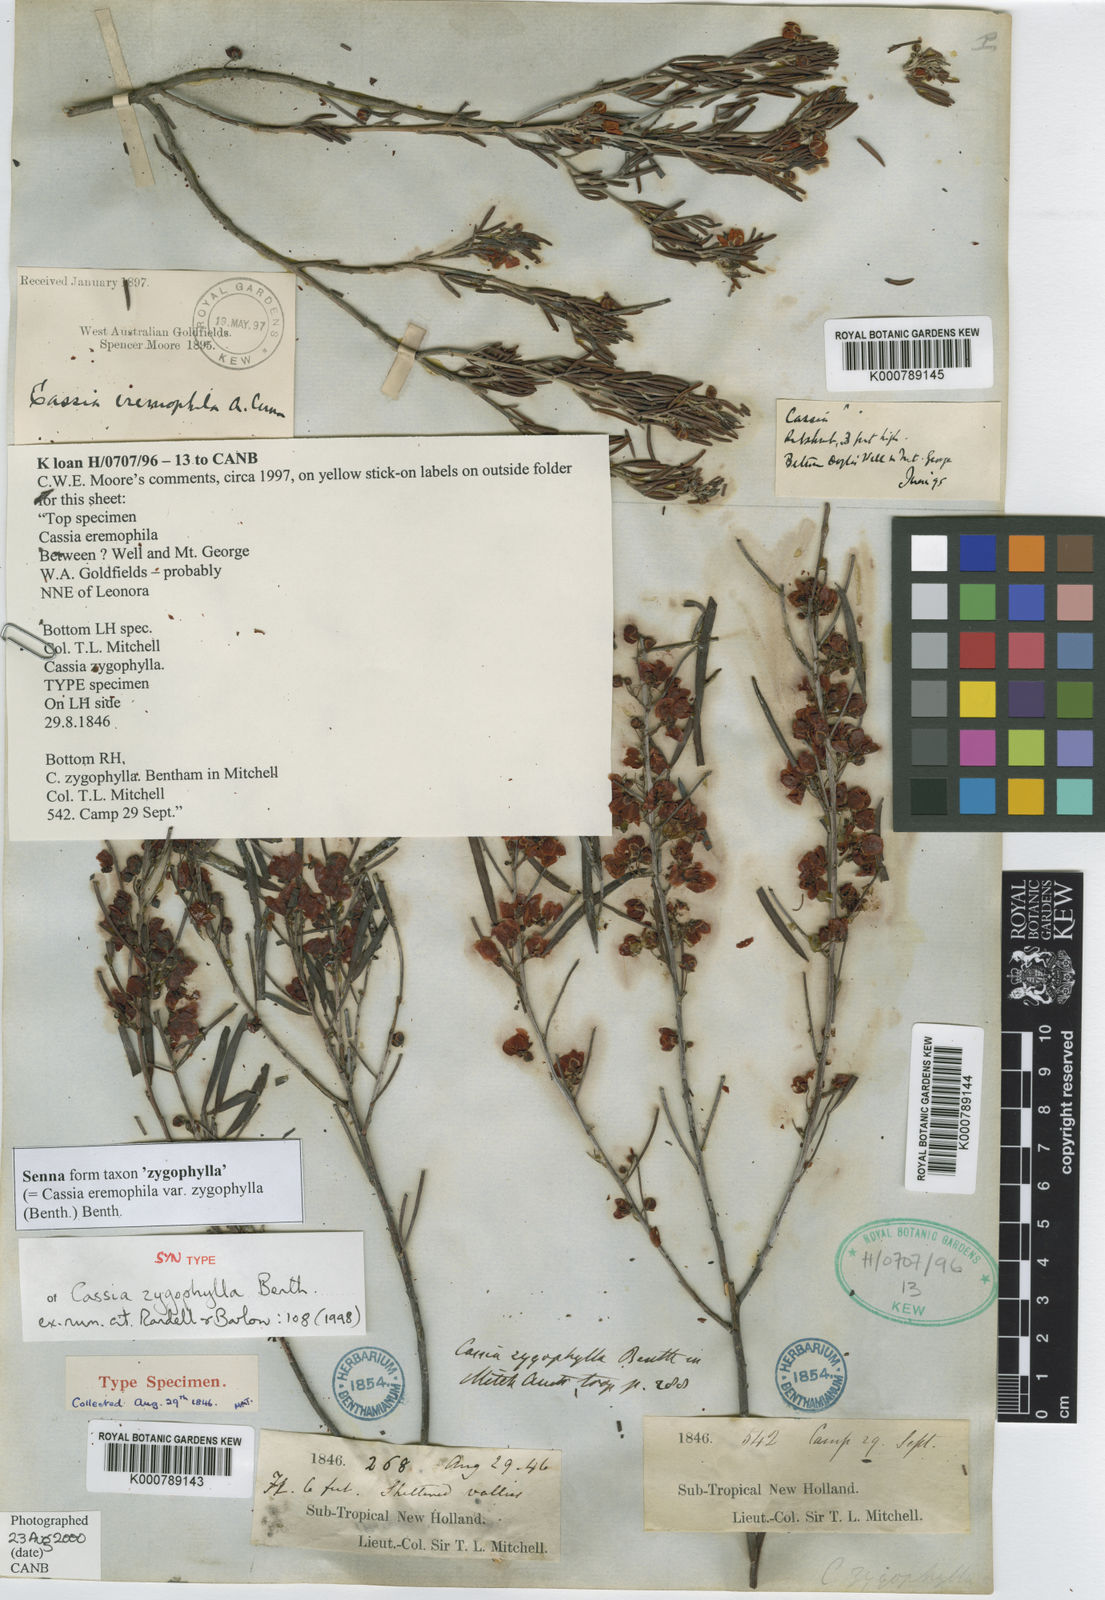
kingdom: Plantae
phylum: Tracheophyta
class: Magnoliopsida
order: Fabales
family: Fabaceae
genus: Senna
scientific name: Senna
